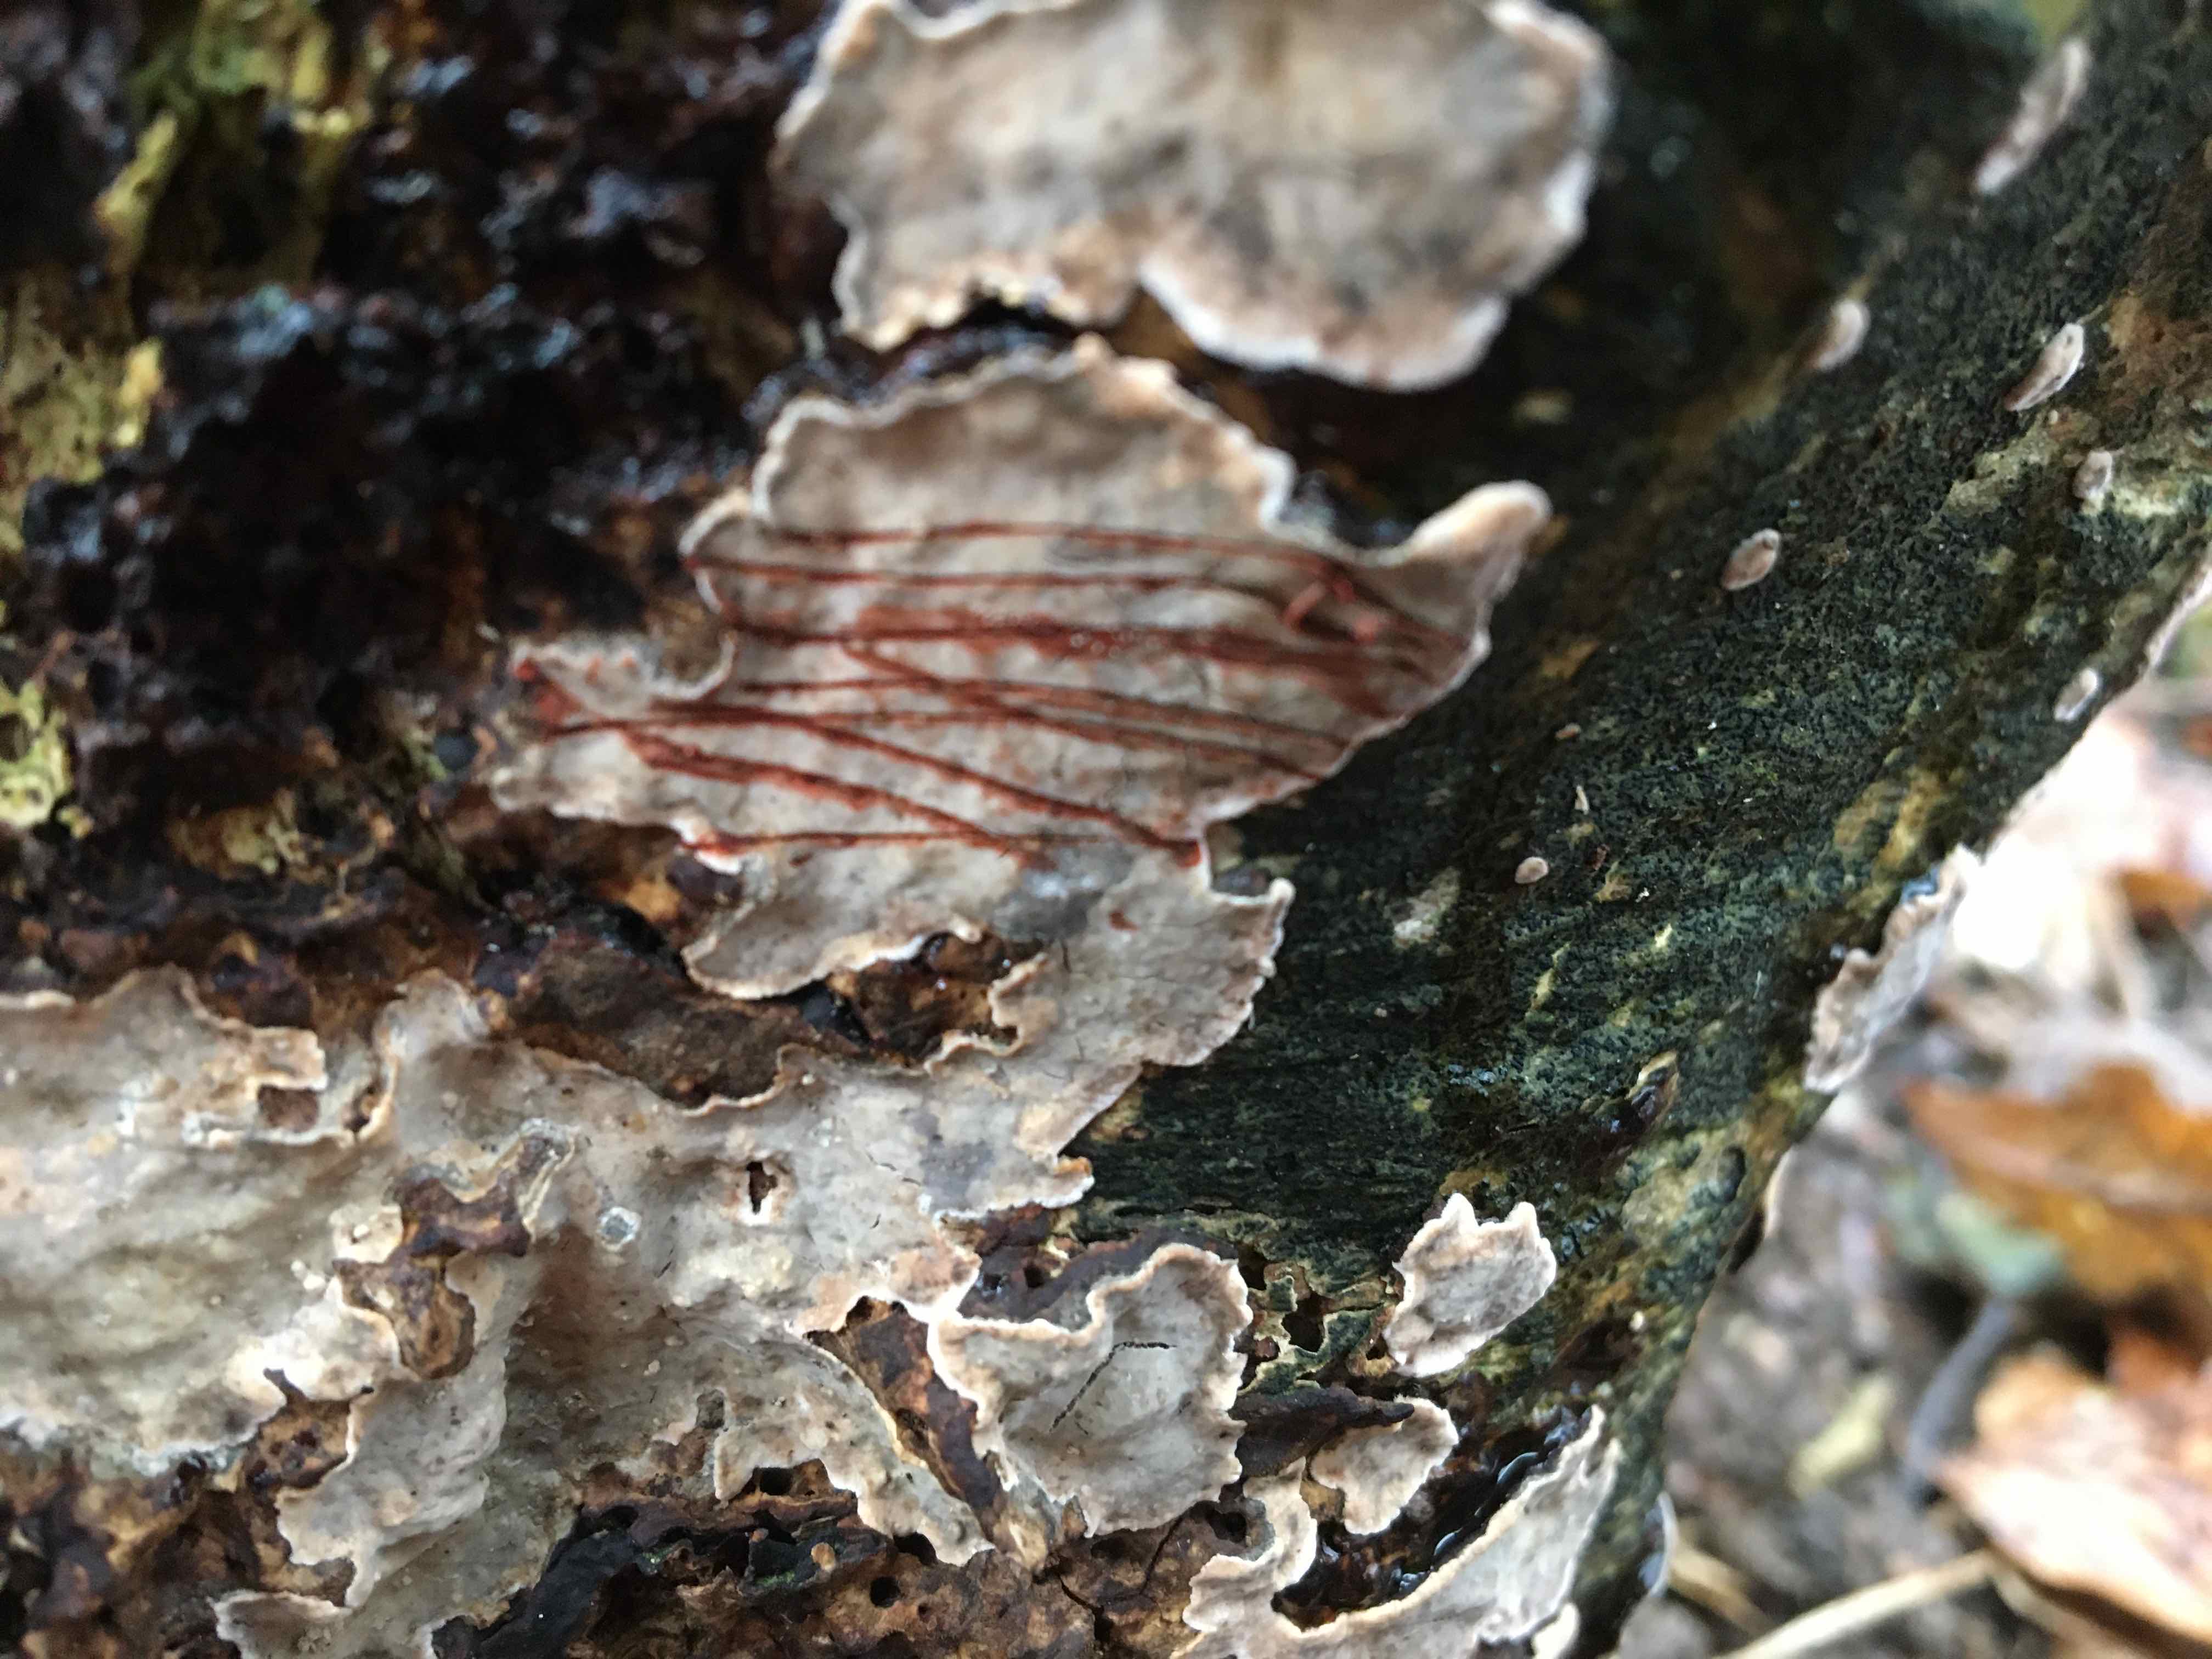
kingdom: Fungi
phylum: Basidiomycota
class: Agaricomycetes
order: Russulales
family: Stereaceae
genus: Stereum
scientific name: Stereum rugosum
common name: rynket lædersvamp
